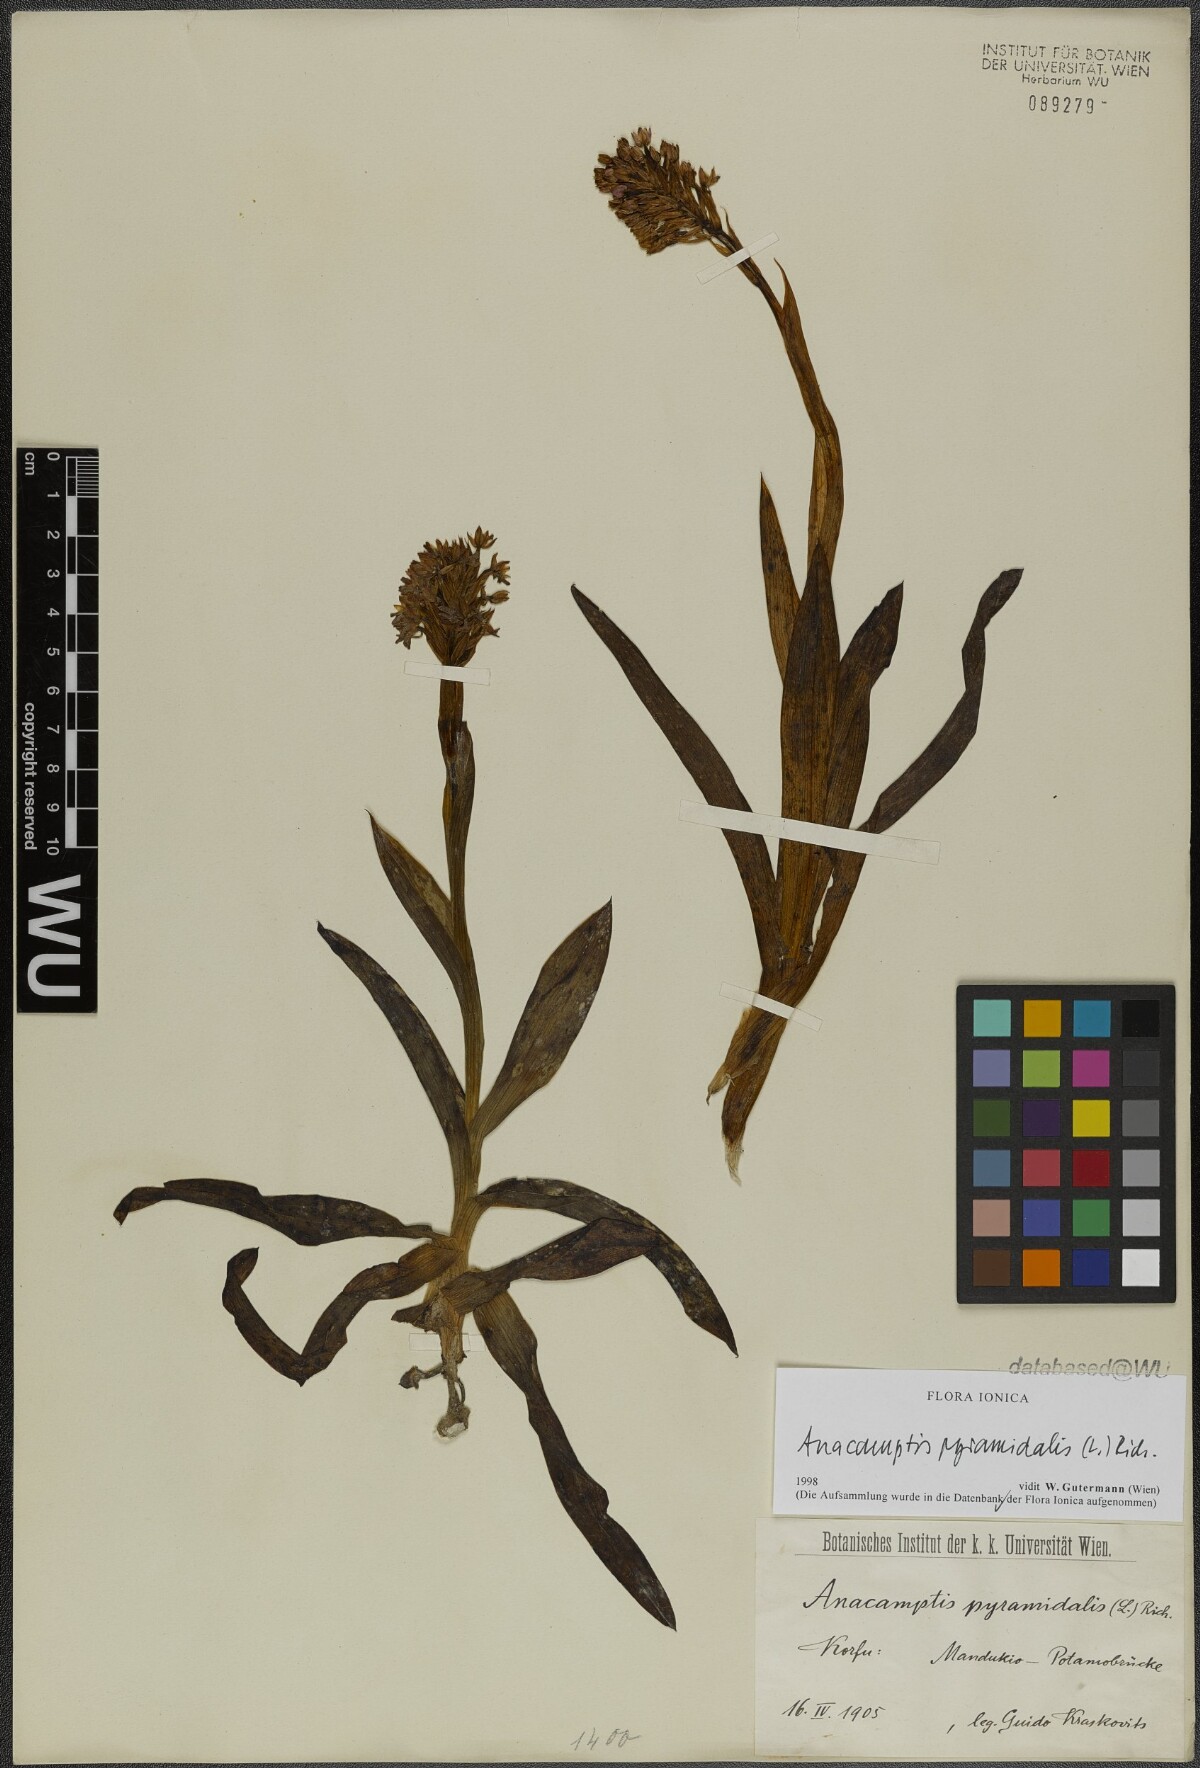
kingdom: Plantae
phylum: Tracheophyta
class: Liliopsida
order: Asparagales
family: Orchidaceae
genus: Anacamptis
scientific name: Anacamptis pyramidalis
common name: Pyramidal orchid
